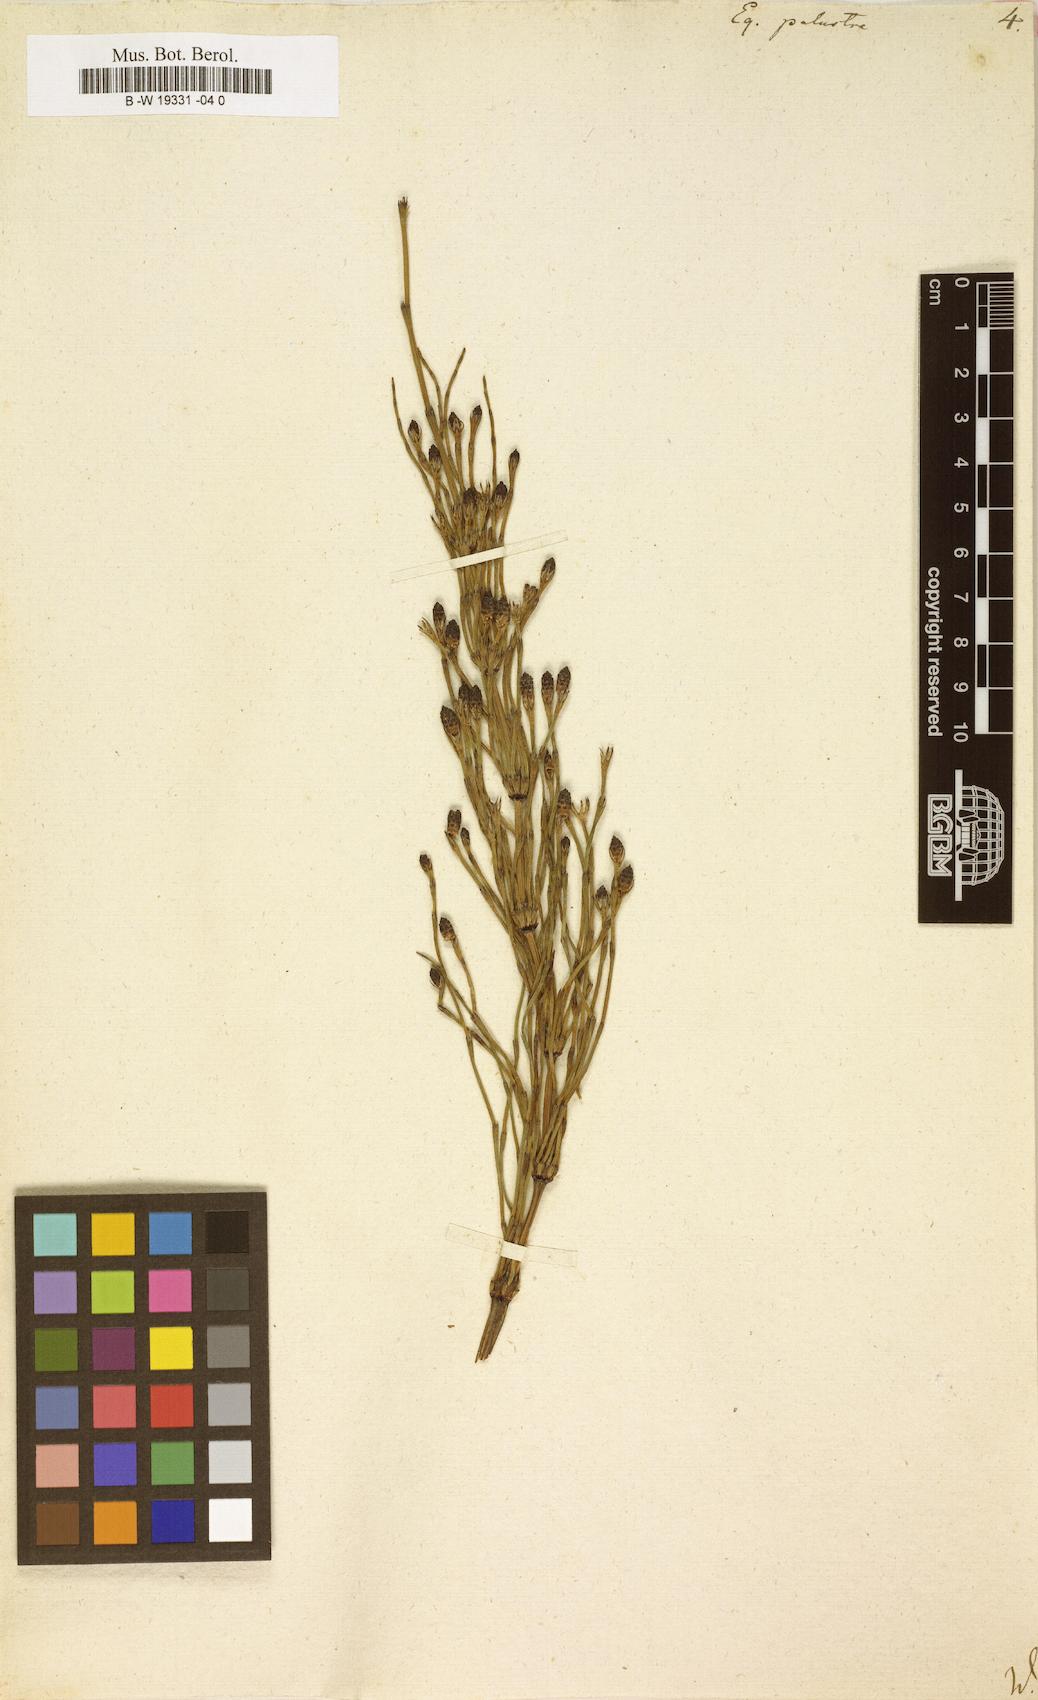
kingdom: Plantae
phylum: Tracheophyta
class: Polypodiopsida
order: Equisetales
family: Equisetaceae
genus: Equisetum
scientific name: Equisetum palustre
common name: Marsh horsetail
